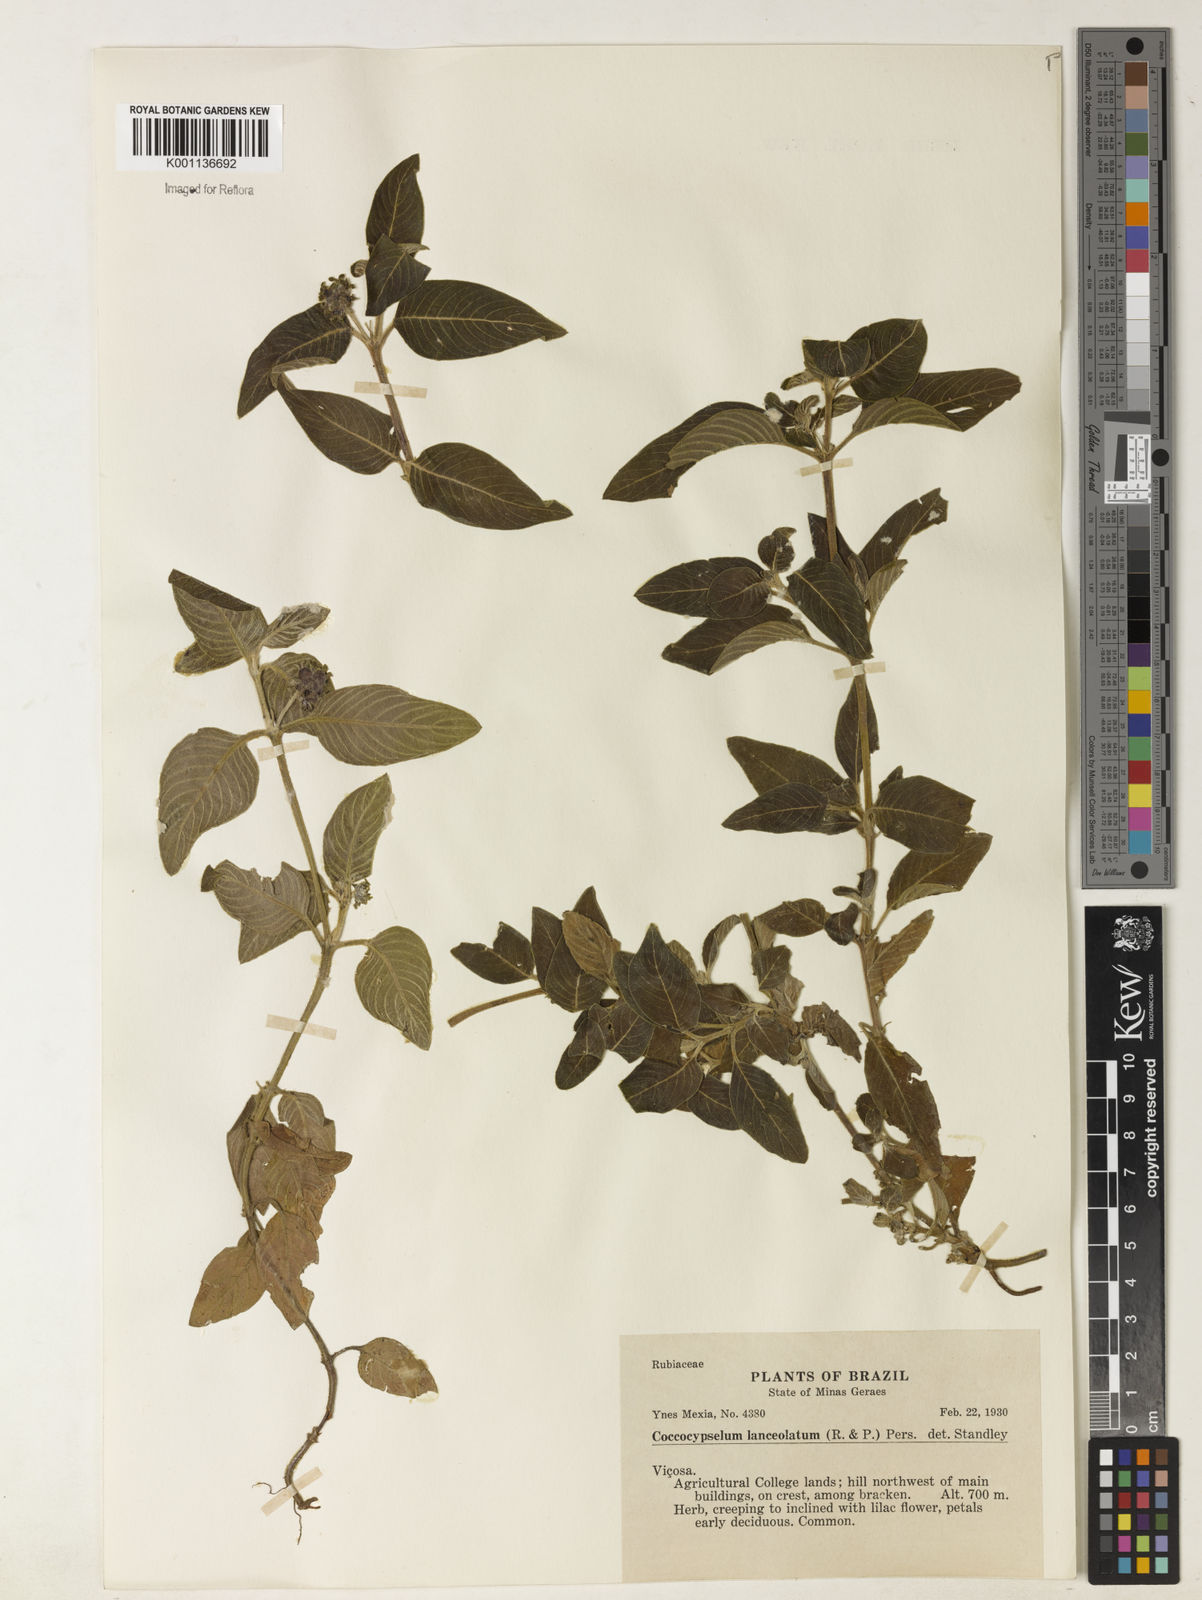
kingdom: Plantae
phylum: Tracheophyta
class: Magnoliopsida
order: Gentianales
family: Rubiaceae
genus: Coccocypselum
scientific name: Coccocypselum lanceolatum
